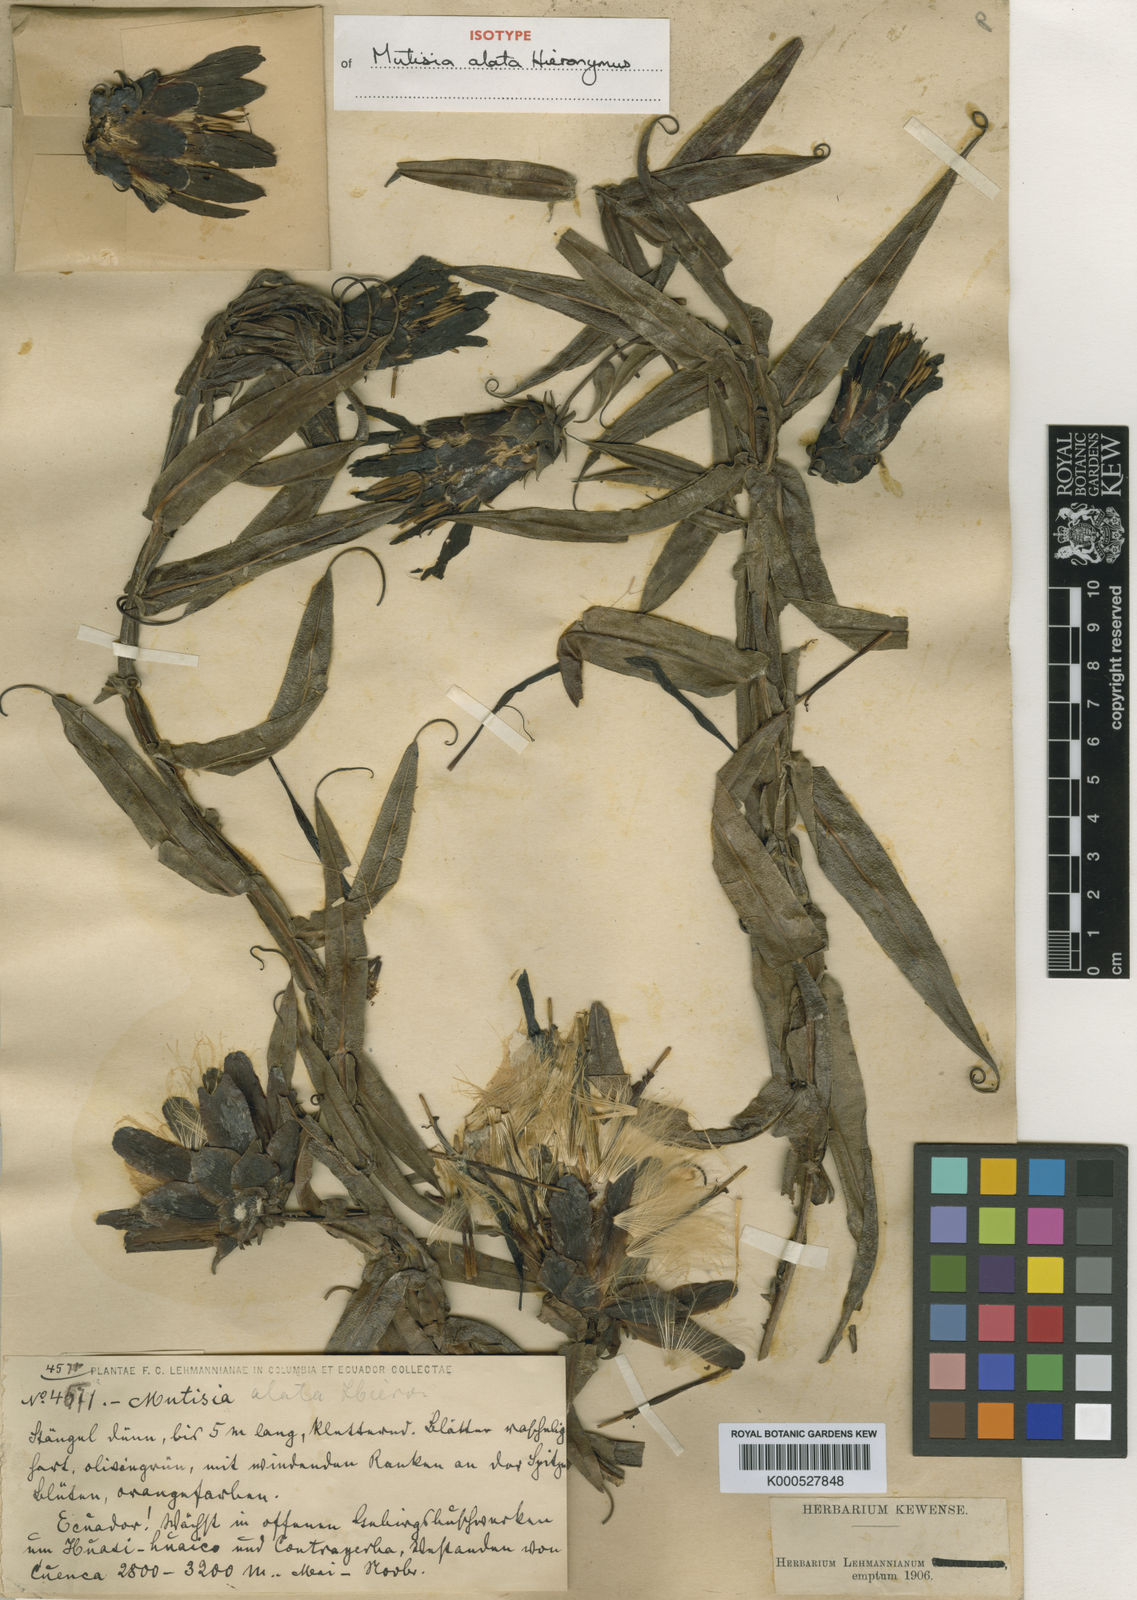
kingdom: Plantae
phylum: Tracheophyta
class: Magnoliopsida
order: Asterales
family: Asteraceae
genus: Mutisia
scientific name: Mutisia alata
